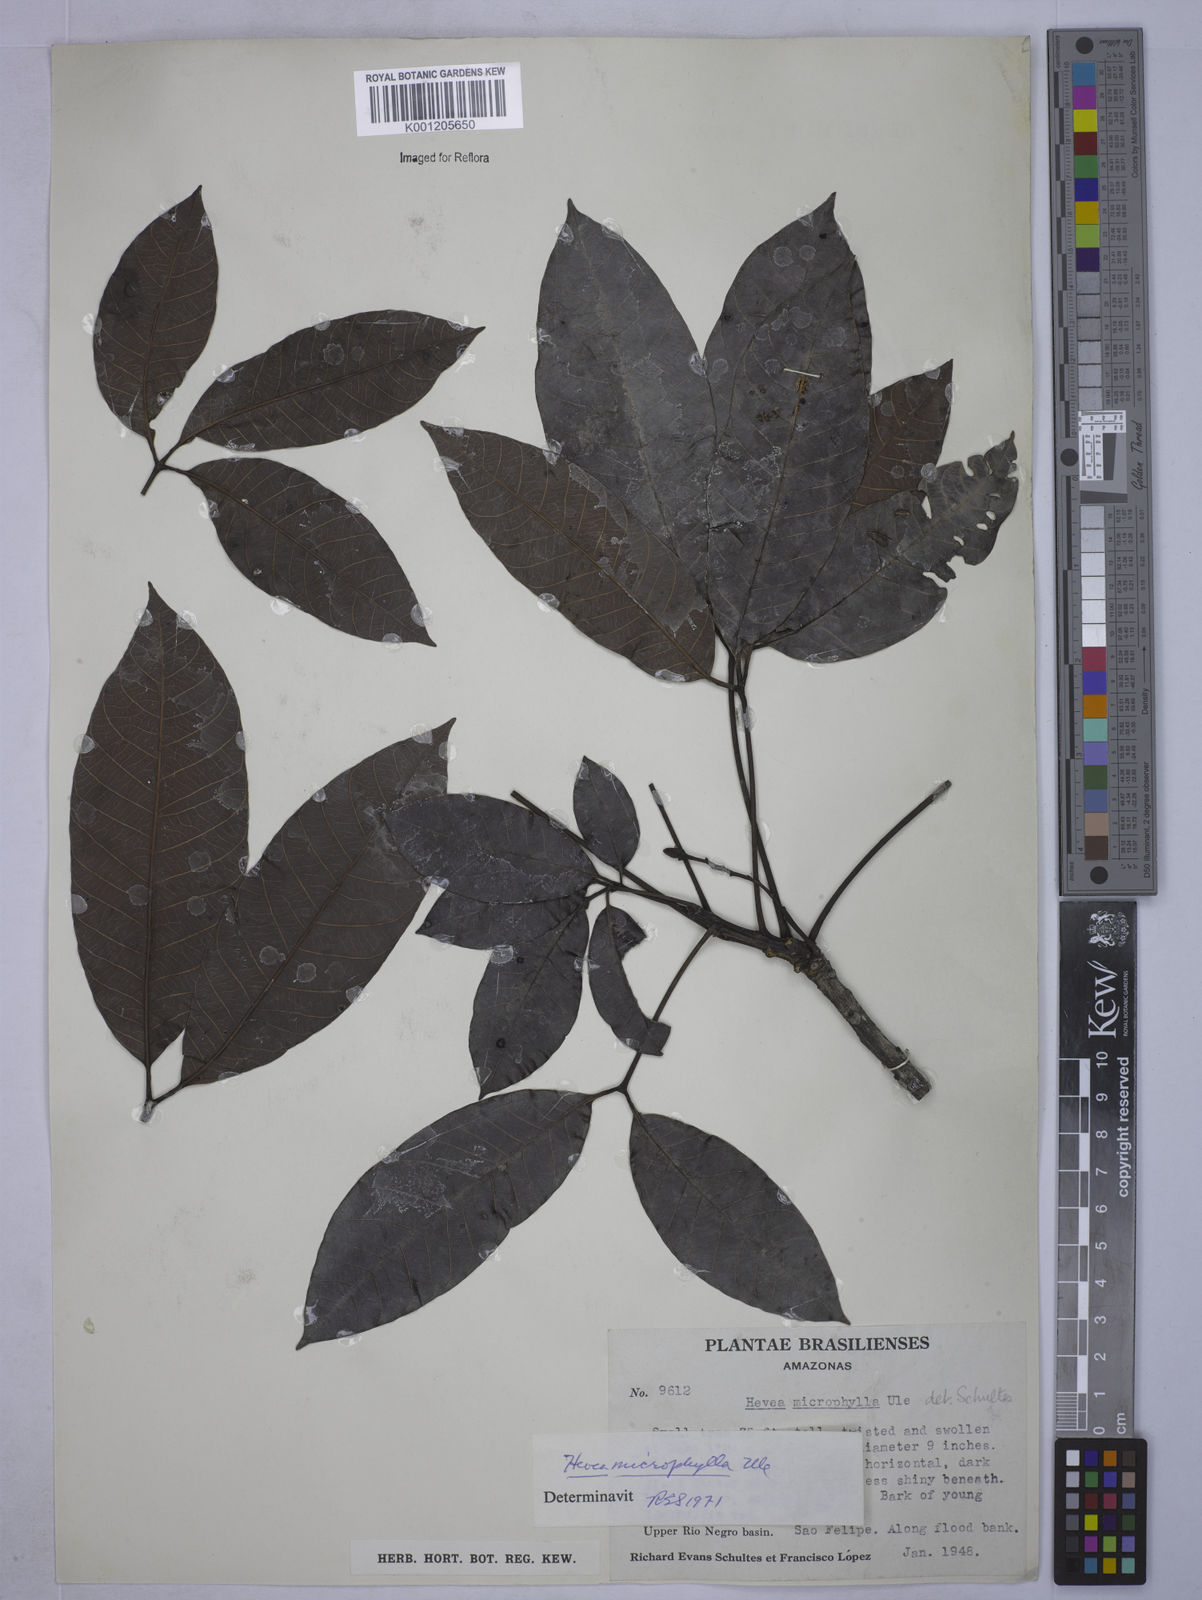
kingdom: Plantae
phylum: Tracheophyta
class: Magnoliopsida
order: Malpighiales
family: Euphorbiaceae
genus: Hevea
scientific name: Hevea microphylla
